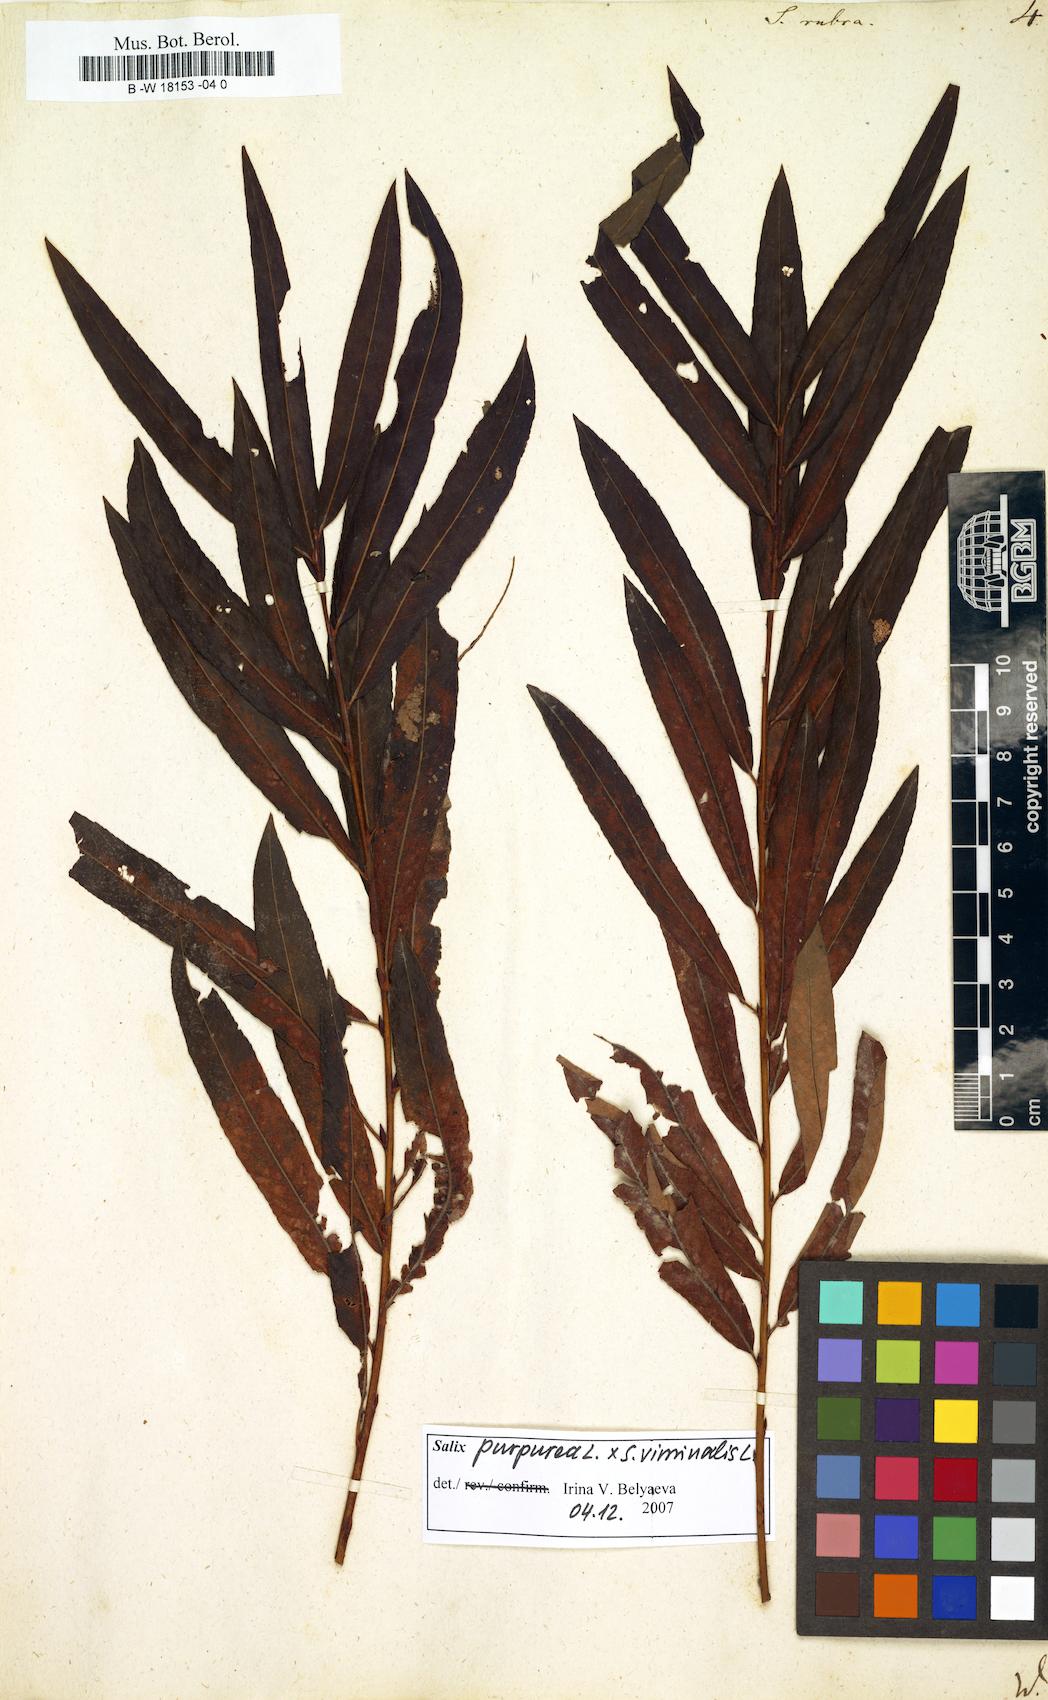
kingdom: Plantae
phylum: Tracheophyta
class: Magnoliopsida
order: Malpighiales
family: Salicaceae
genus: Salix
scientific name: Salix rubra
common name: Green-leaf willow
